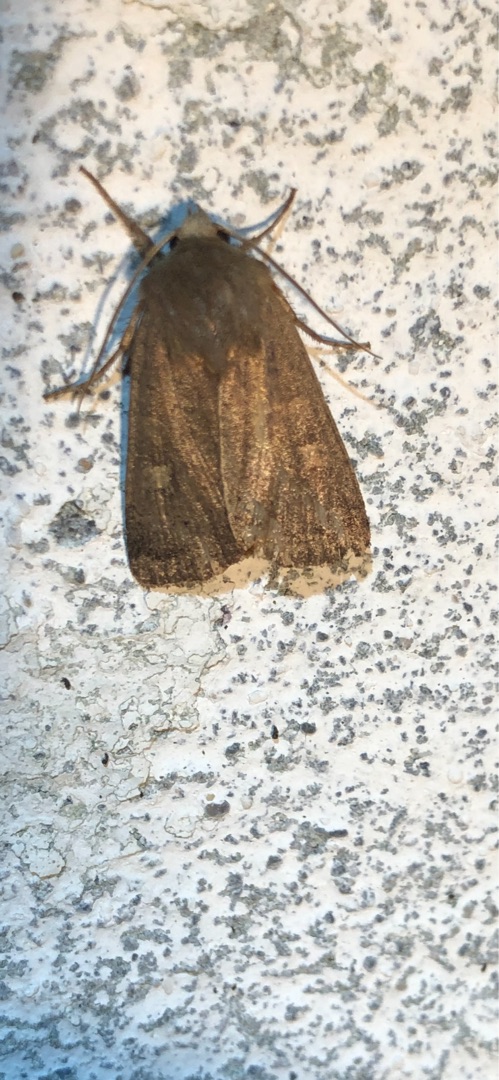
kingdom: Animalia
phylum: Arthropoda
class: Insecta
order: Lepidoptera
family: Noctuidae
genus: Xestia
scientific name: Xestia xanthographa
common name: Gulmærket glansugle
